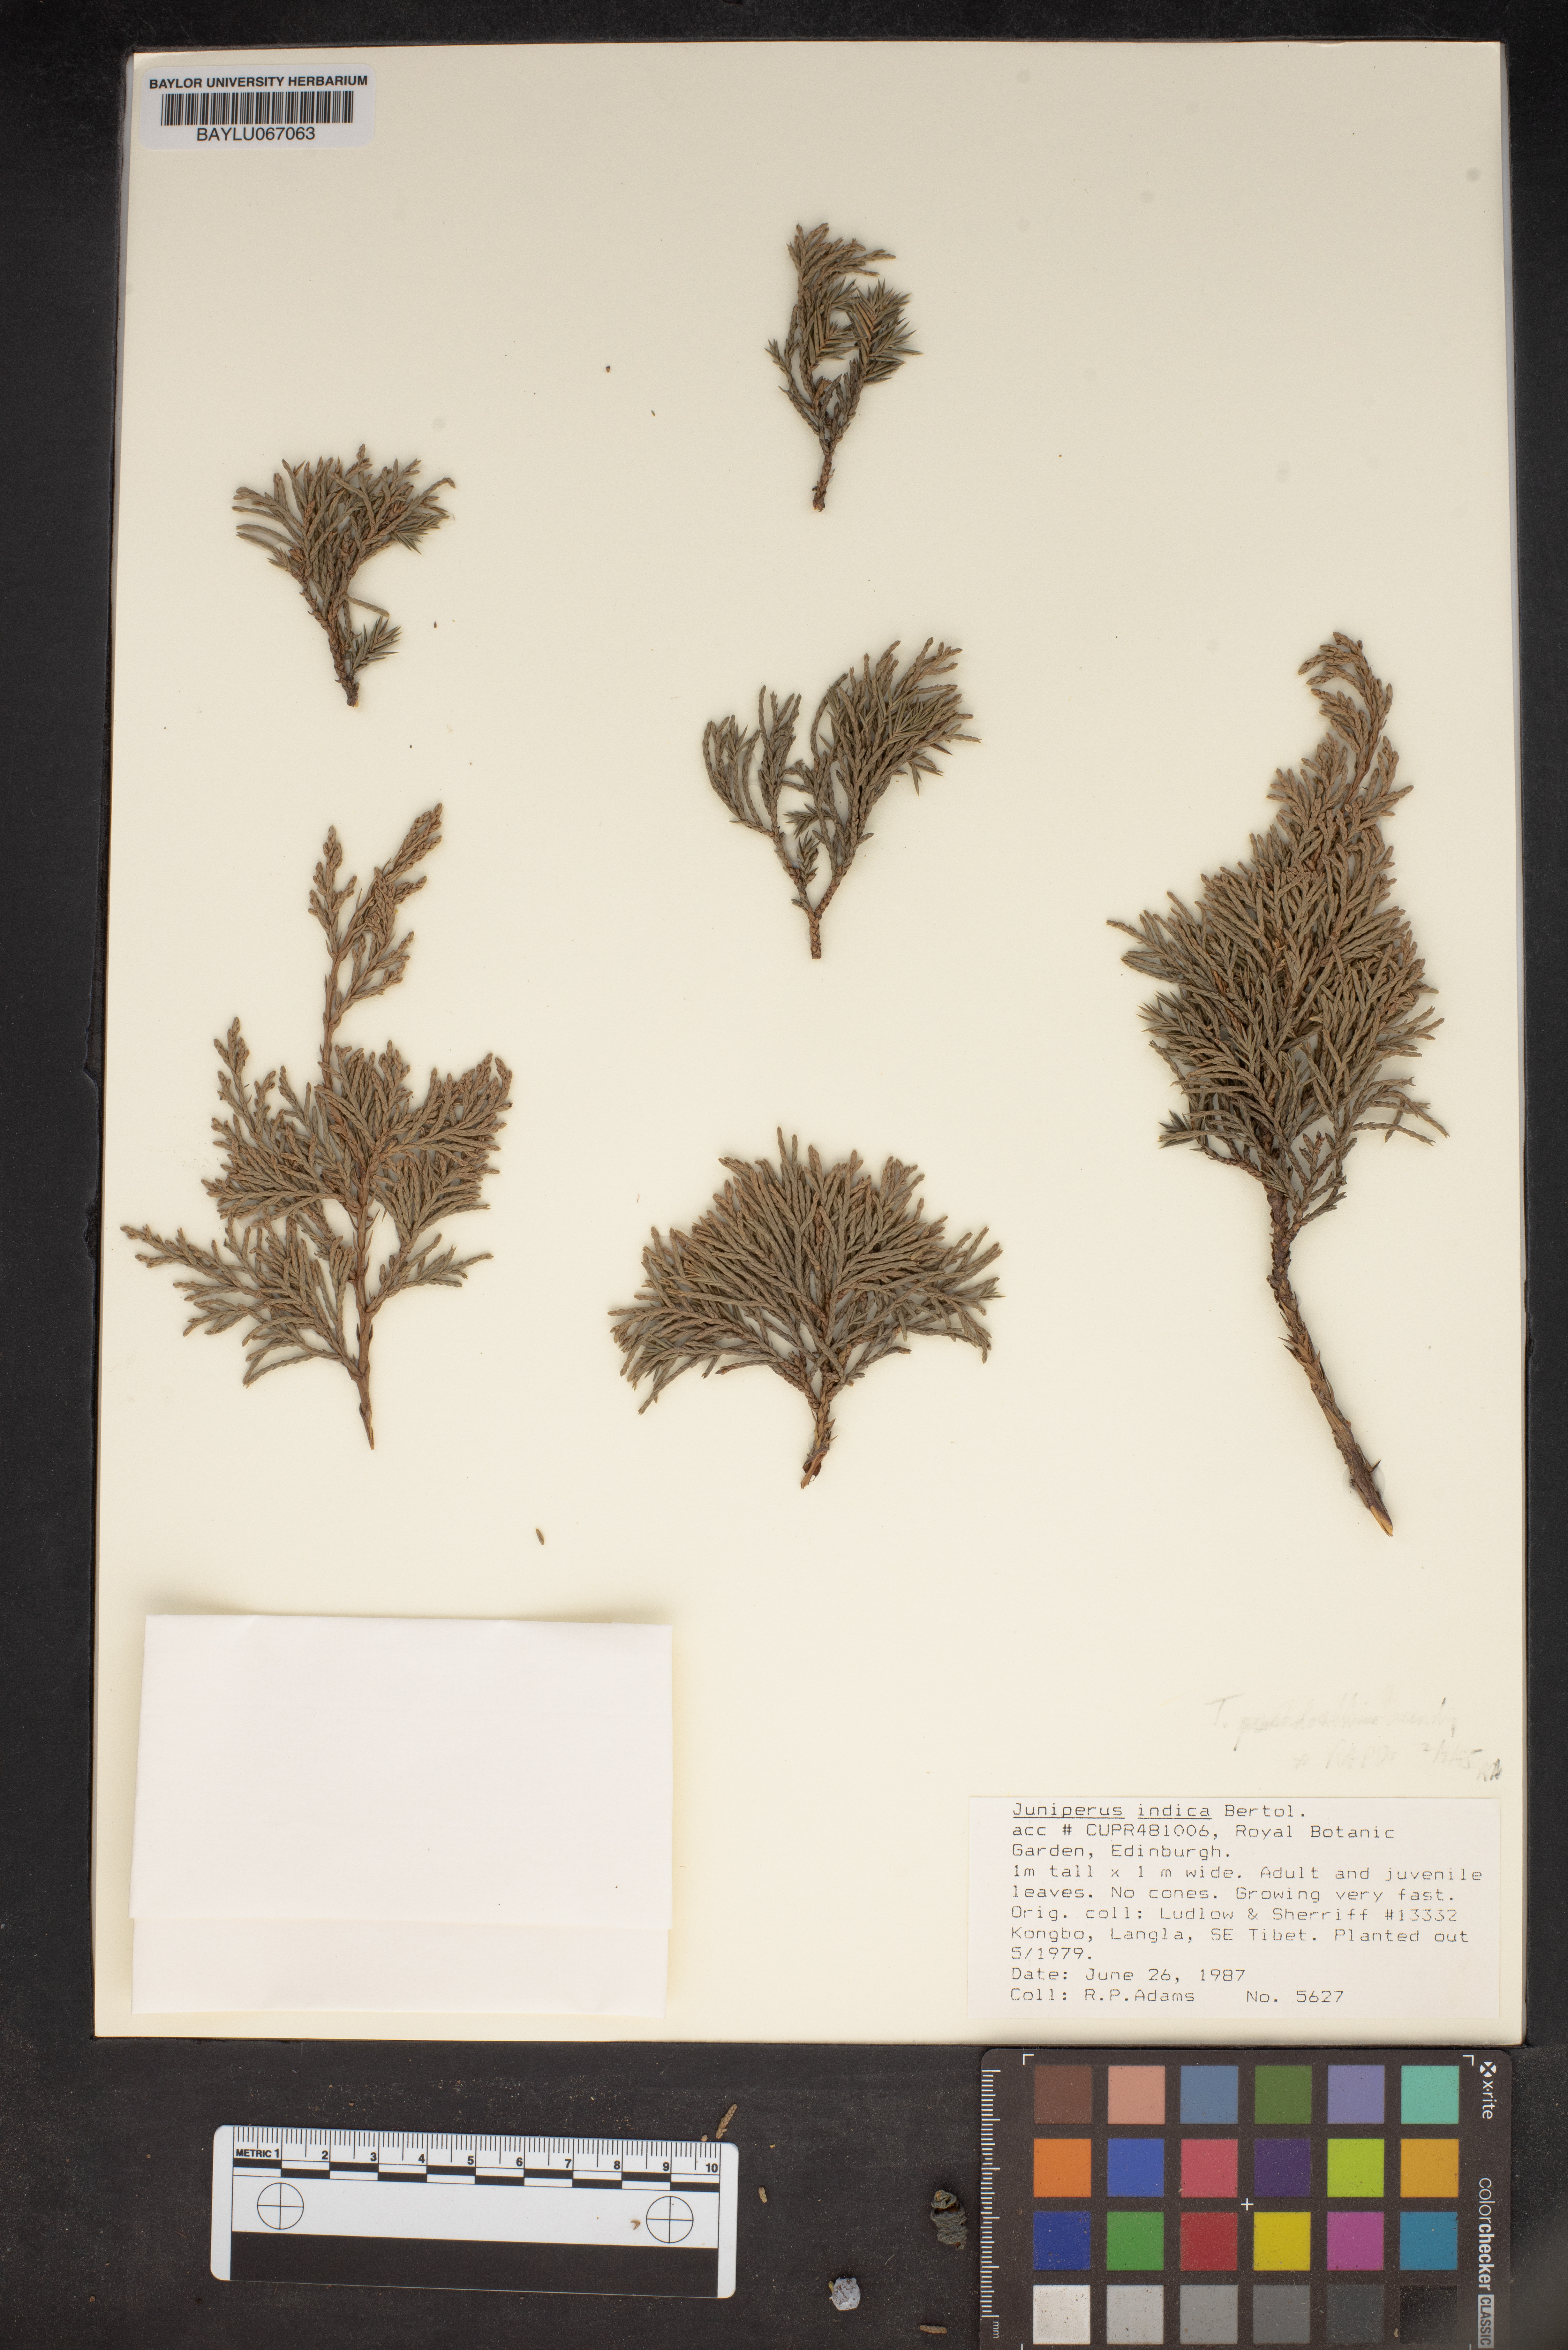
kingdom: Plantae
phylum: Tracheophyta
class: Pinopsida
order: Pinales
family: Cupressaceae
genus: Juniperus
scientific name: Juniperus indica
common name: Black juniper
